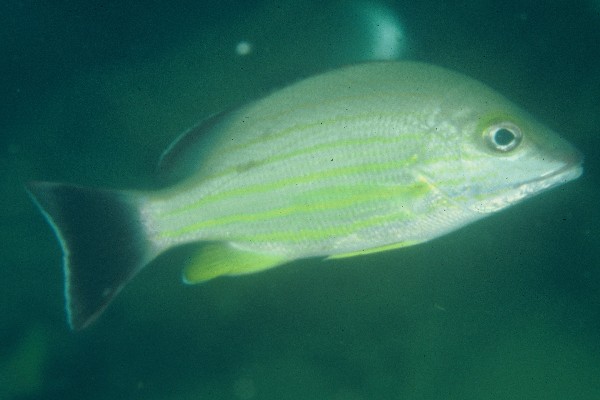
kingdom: Animalia
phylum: Chordata
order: Perciformes
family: Lutjanidae
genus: Lutjanus
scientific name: Lutjanus fulvus
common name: Blacktail snapper
